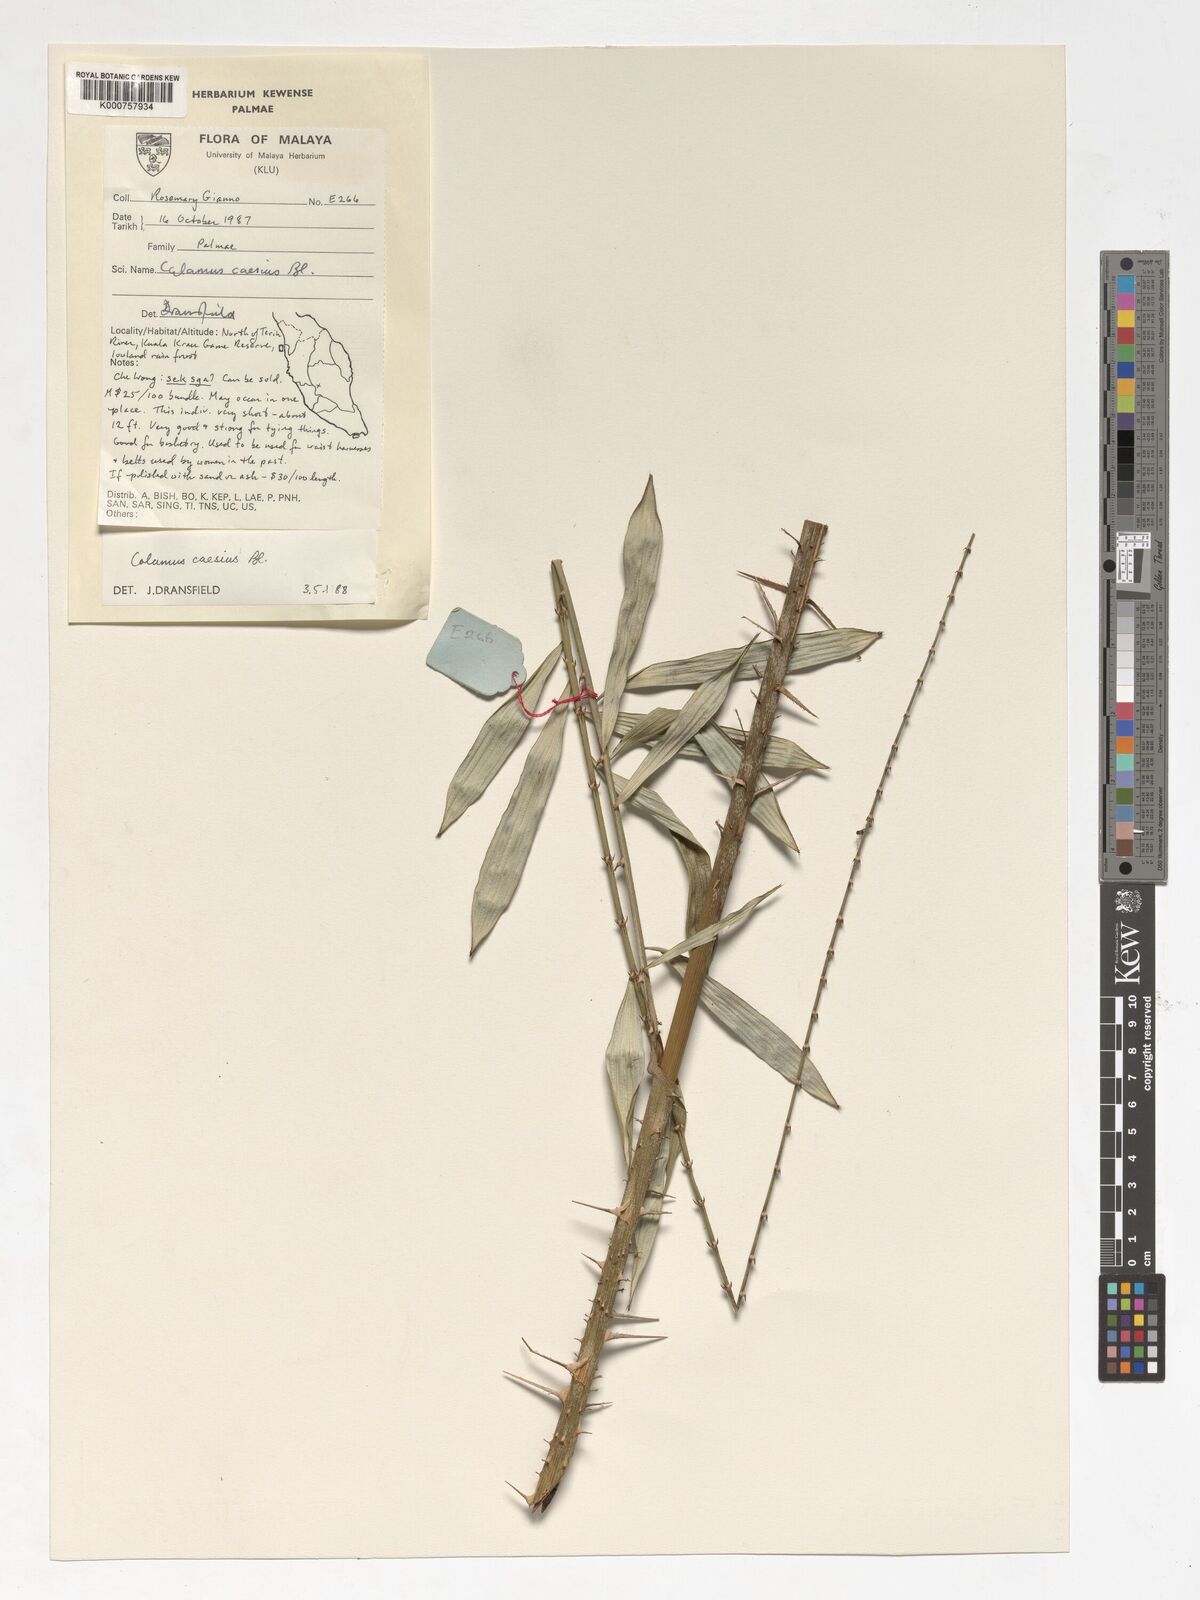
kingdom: Plantae
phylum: Tracheophyta
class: Liliopsida
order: Arecales
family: Arecaceae
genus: Calamus
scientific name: Calamus caesius
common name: Rattan palm
